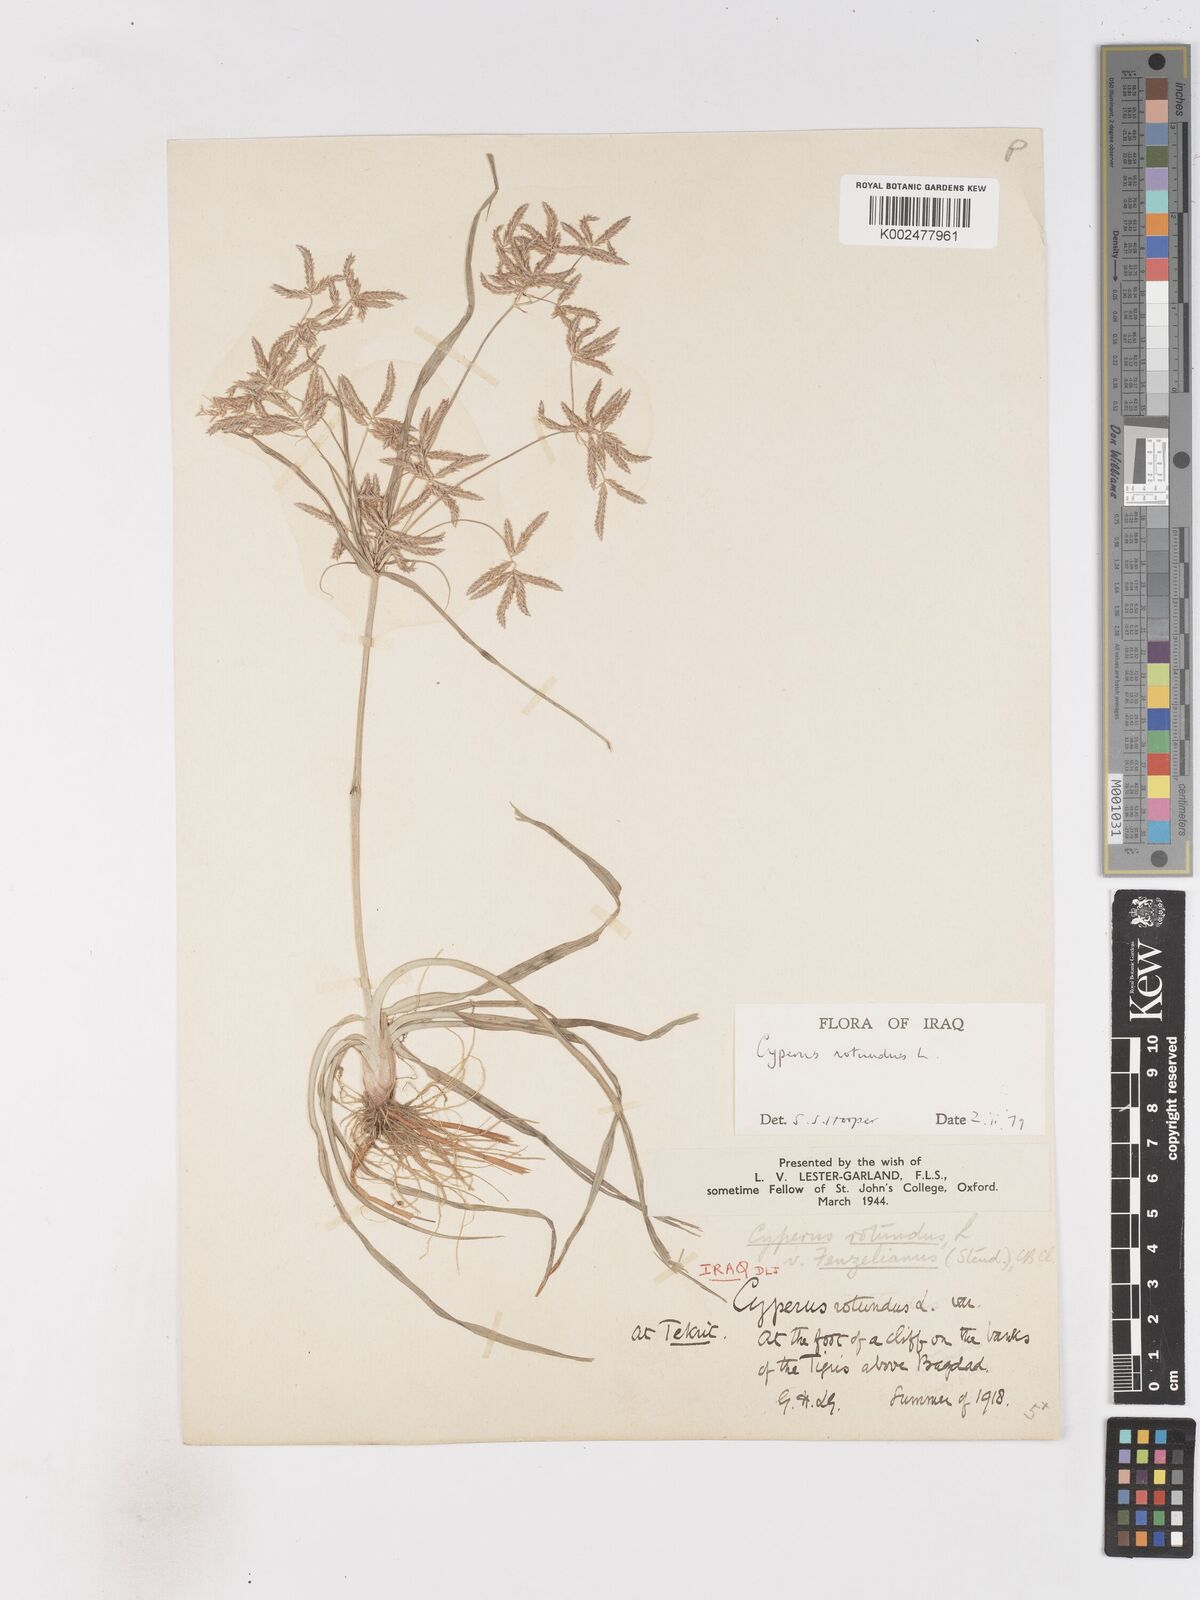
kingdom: Plantae
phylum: Tracheophyta
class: Liliopsida
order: Poales
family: Cyperaceae
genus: Cyperus
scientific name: Cyperus rotundus
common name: Nutgrass
